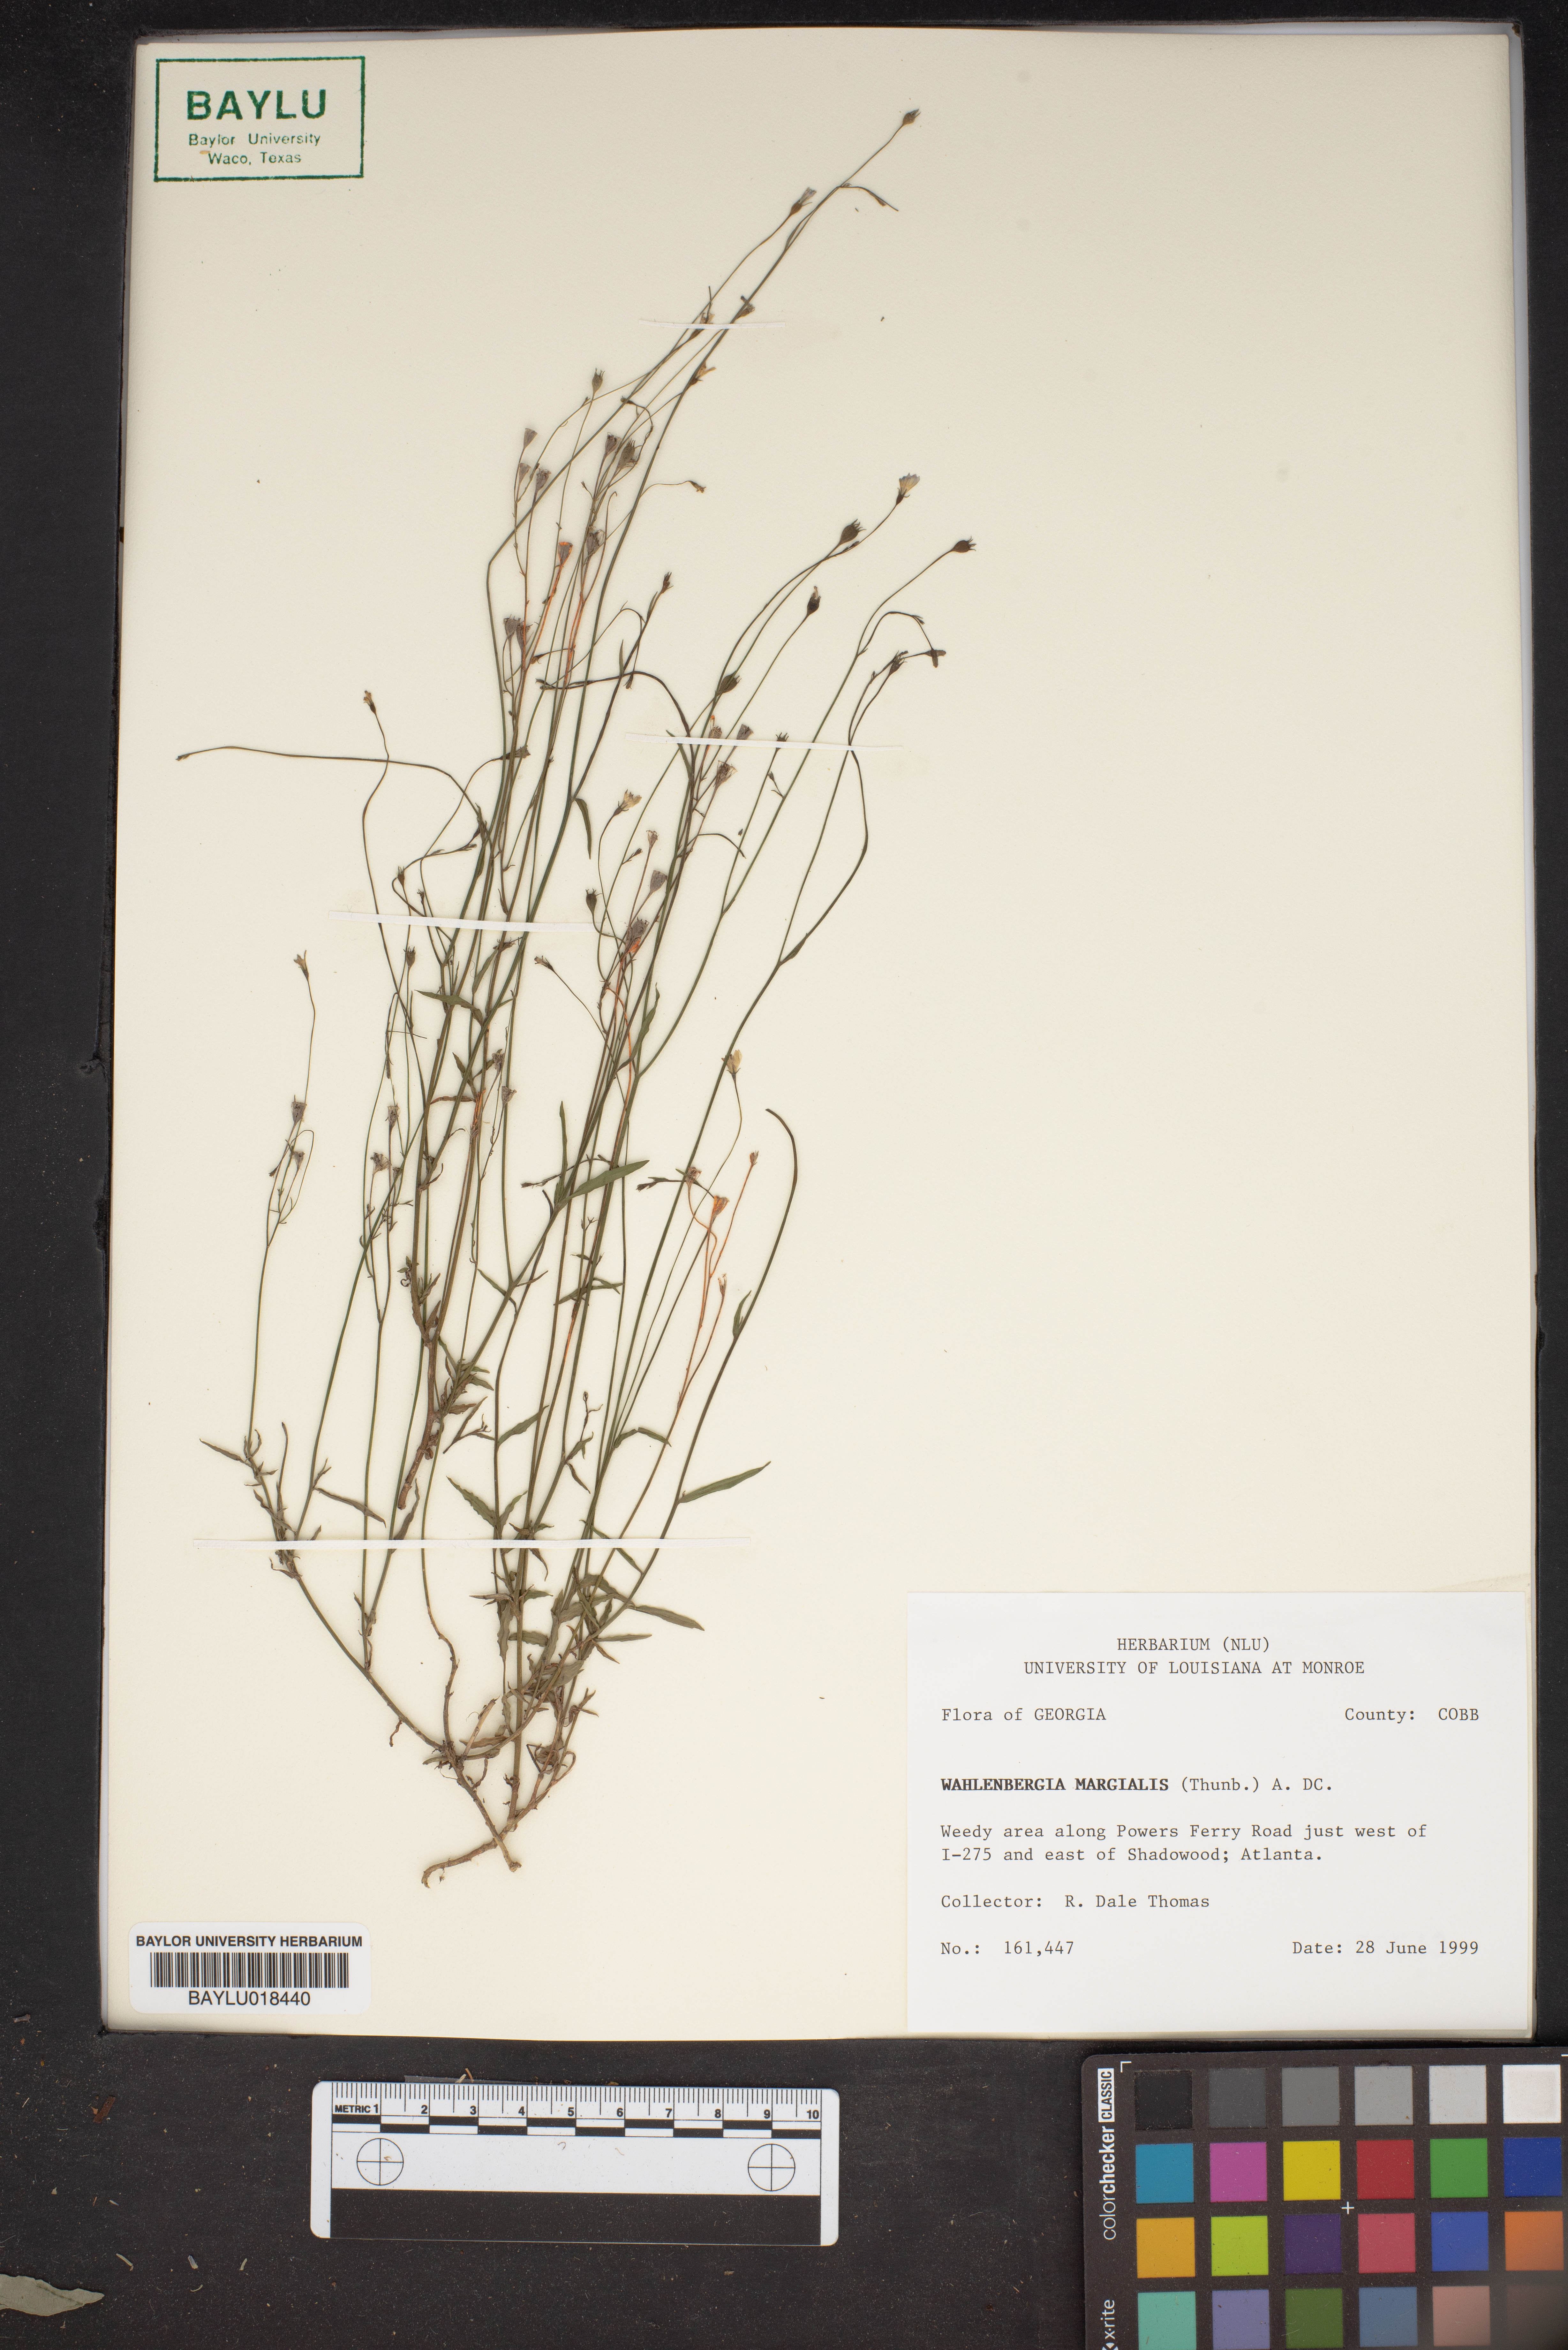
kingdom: Plantae
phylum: Tracheophyta
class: Magnoliopsida
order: Asterales
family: Campanulaceae
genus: Wahlenbergia
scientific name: Wahlenbergia
